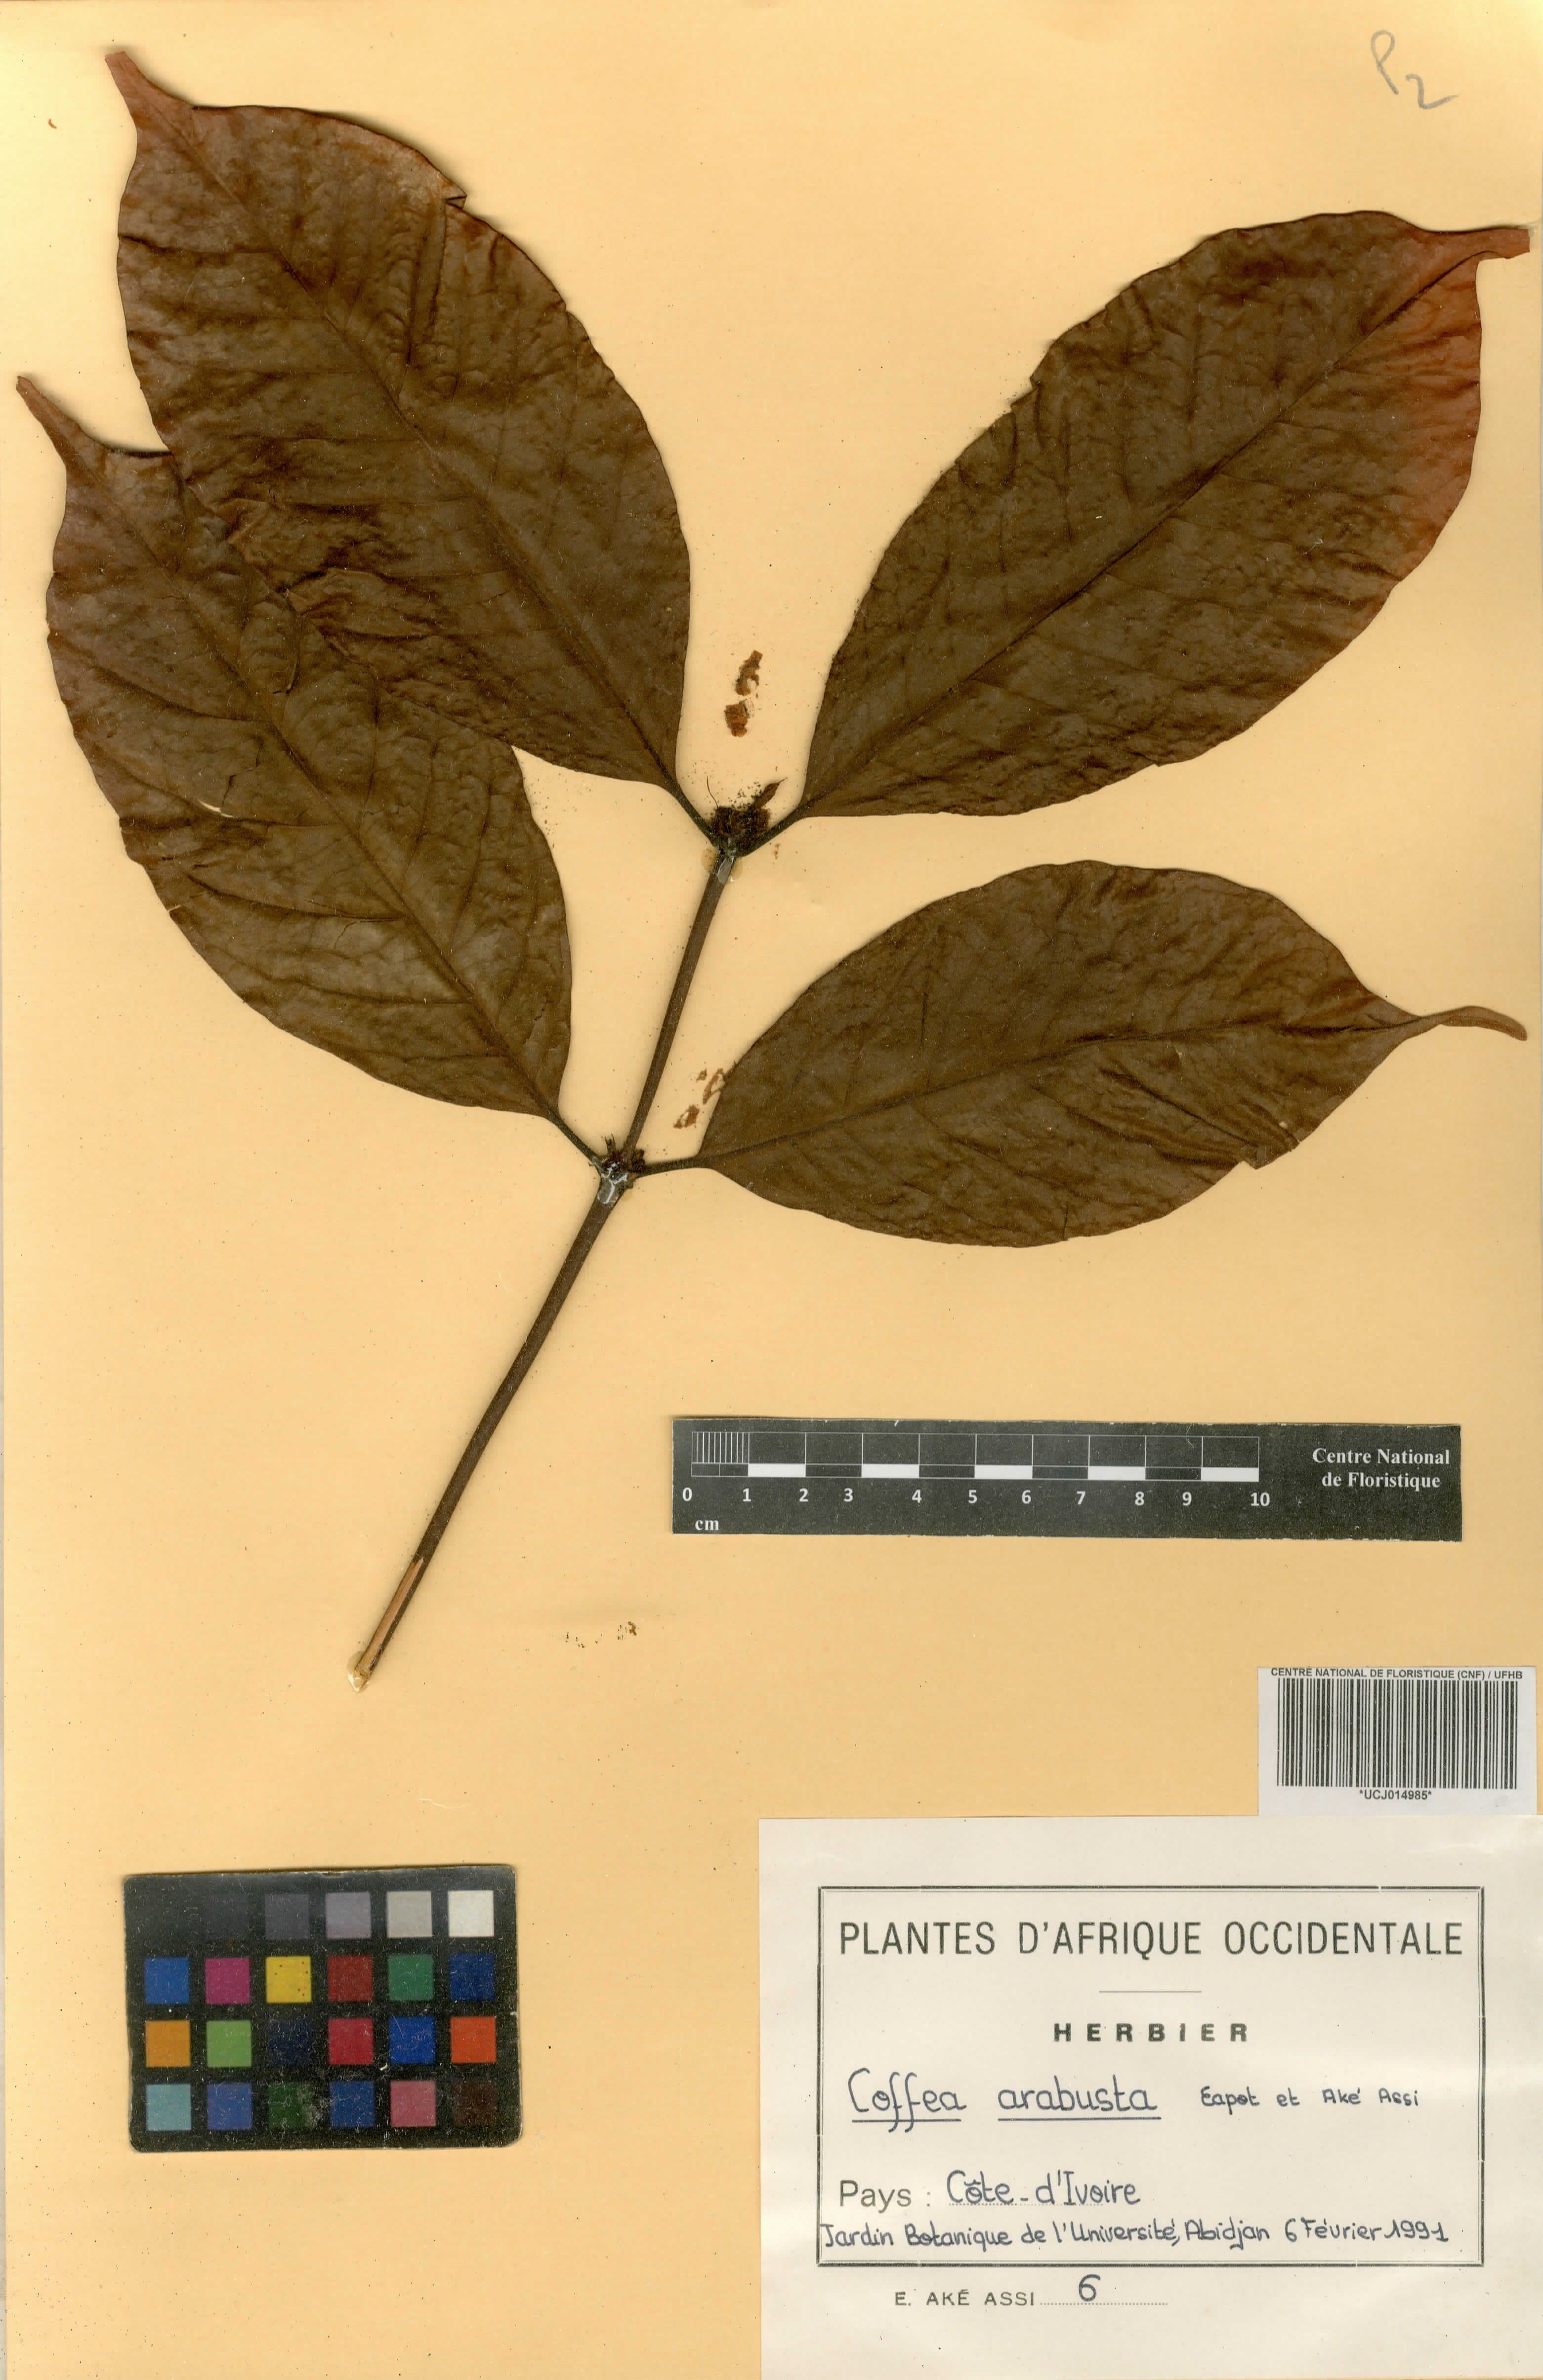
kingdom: Plantae
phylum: Tracheophyta
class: Magnoliopsida
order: Gentianales
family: Rubiaceae
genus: Coffea
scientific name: Coffea arabusta
